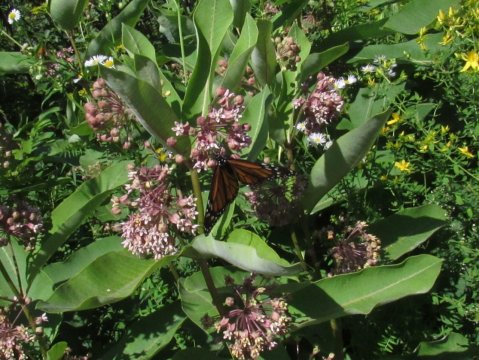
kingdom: Animalia
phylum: Arthropoda
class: Insecta
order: Lepidoptera
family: Nymphalidae
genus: Danaus
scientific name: Danaus plexippus
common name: Monarch
